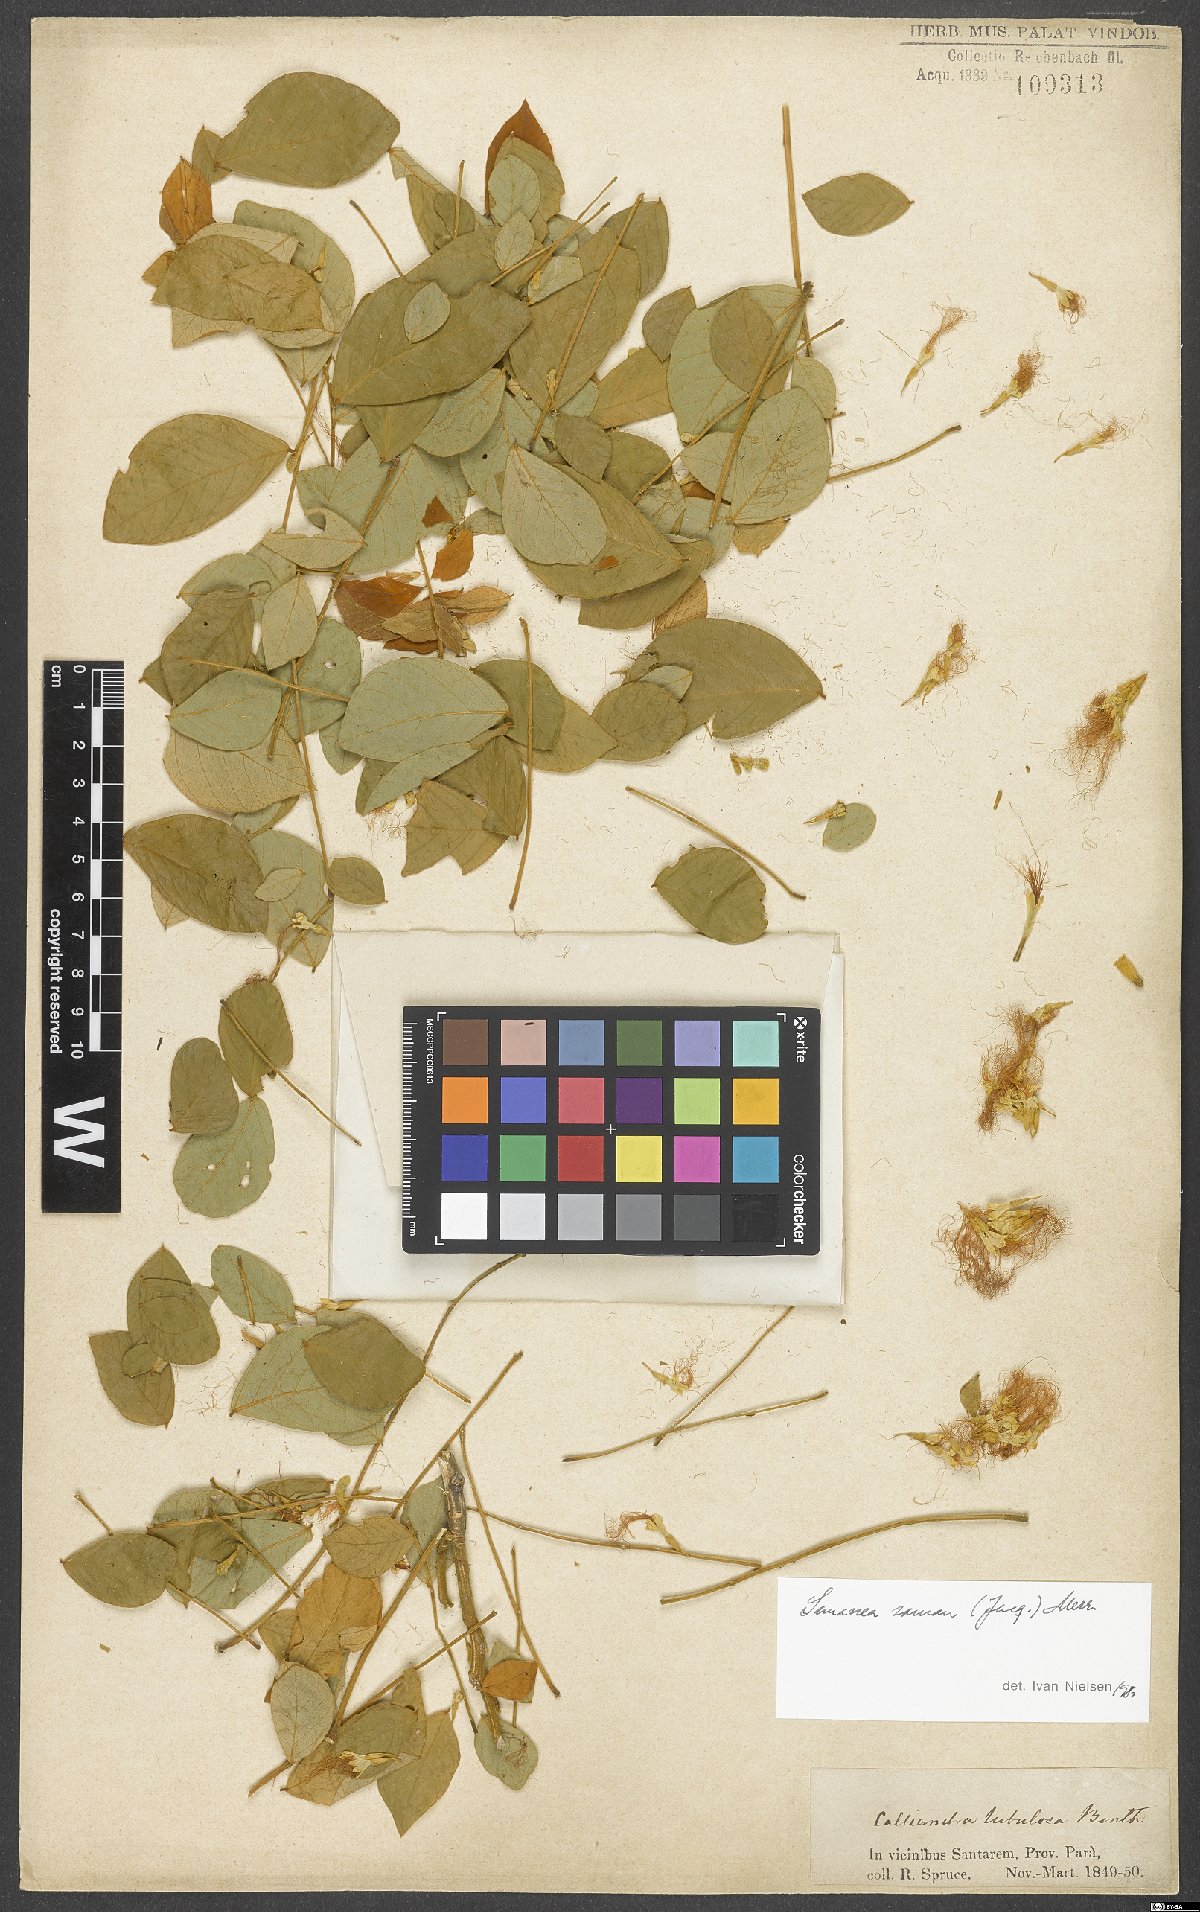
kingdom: Plantae
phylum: Tracheophyta
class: Magnoliopsida
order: Fabales
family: Fabaceae
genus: Samanea
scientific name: Samanea saman
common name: Raintree
